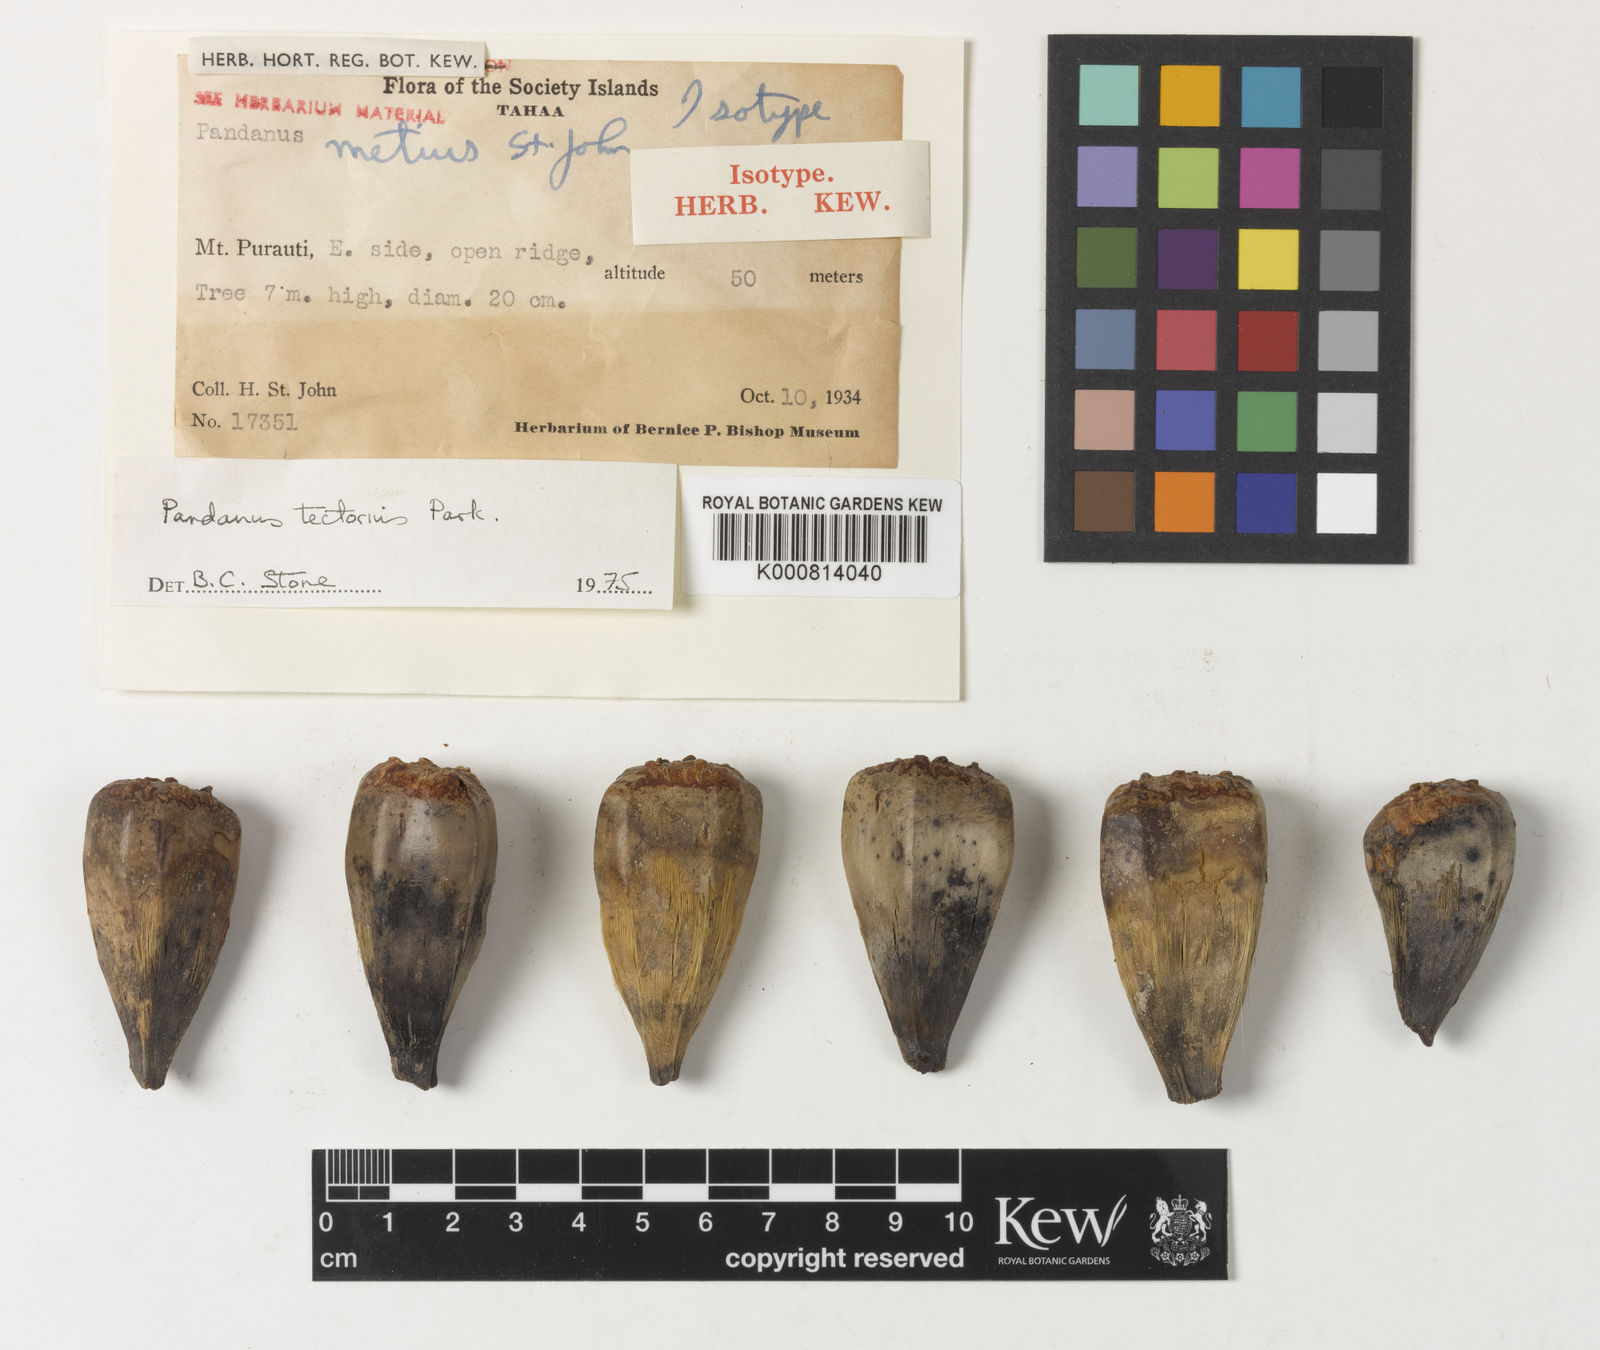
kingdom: Plantae
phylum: Tracheophyta
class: Liliopsida
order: Pandanales
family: Pandanaceae
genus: Pandanus
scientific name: Pandanus tectorius
